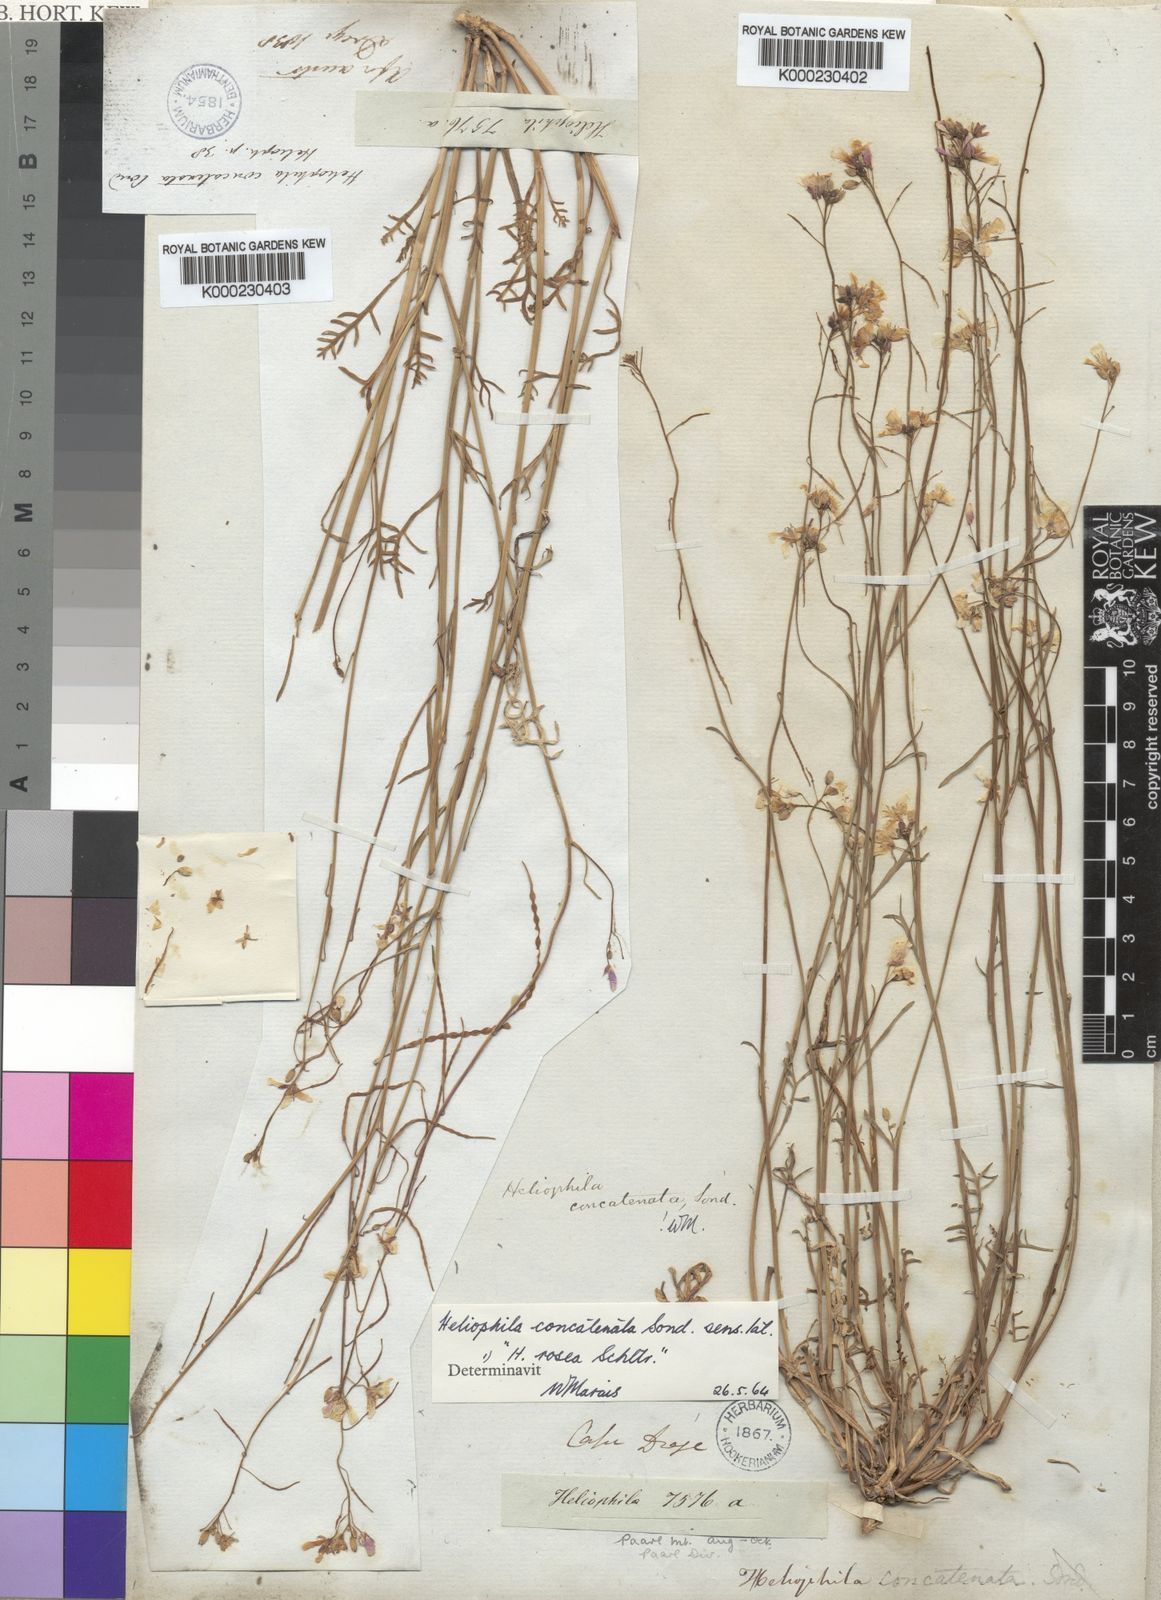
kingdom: Plantae
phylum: Tracheophyta
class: Magnoliopsida
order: Brassicales
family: Brassicaceae
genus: Heliophila
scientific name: Heliophila concatenata
